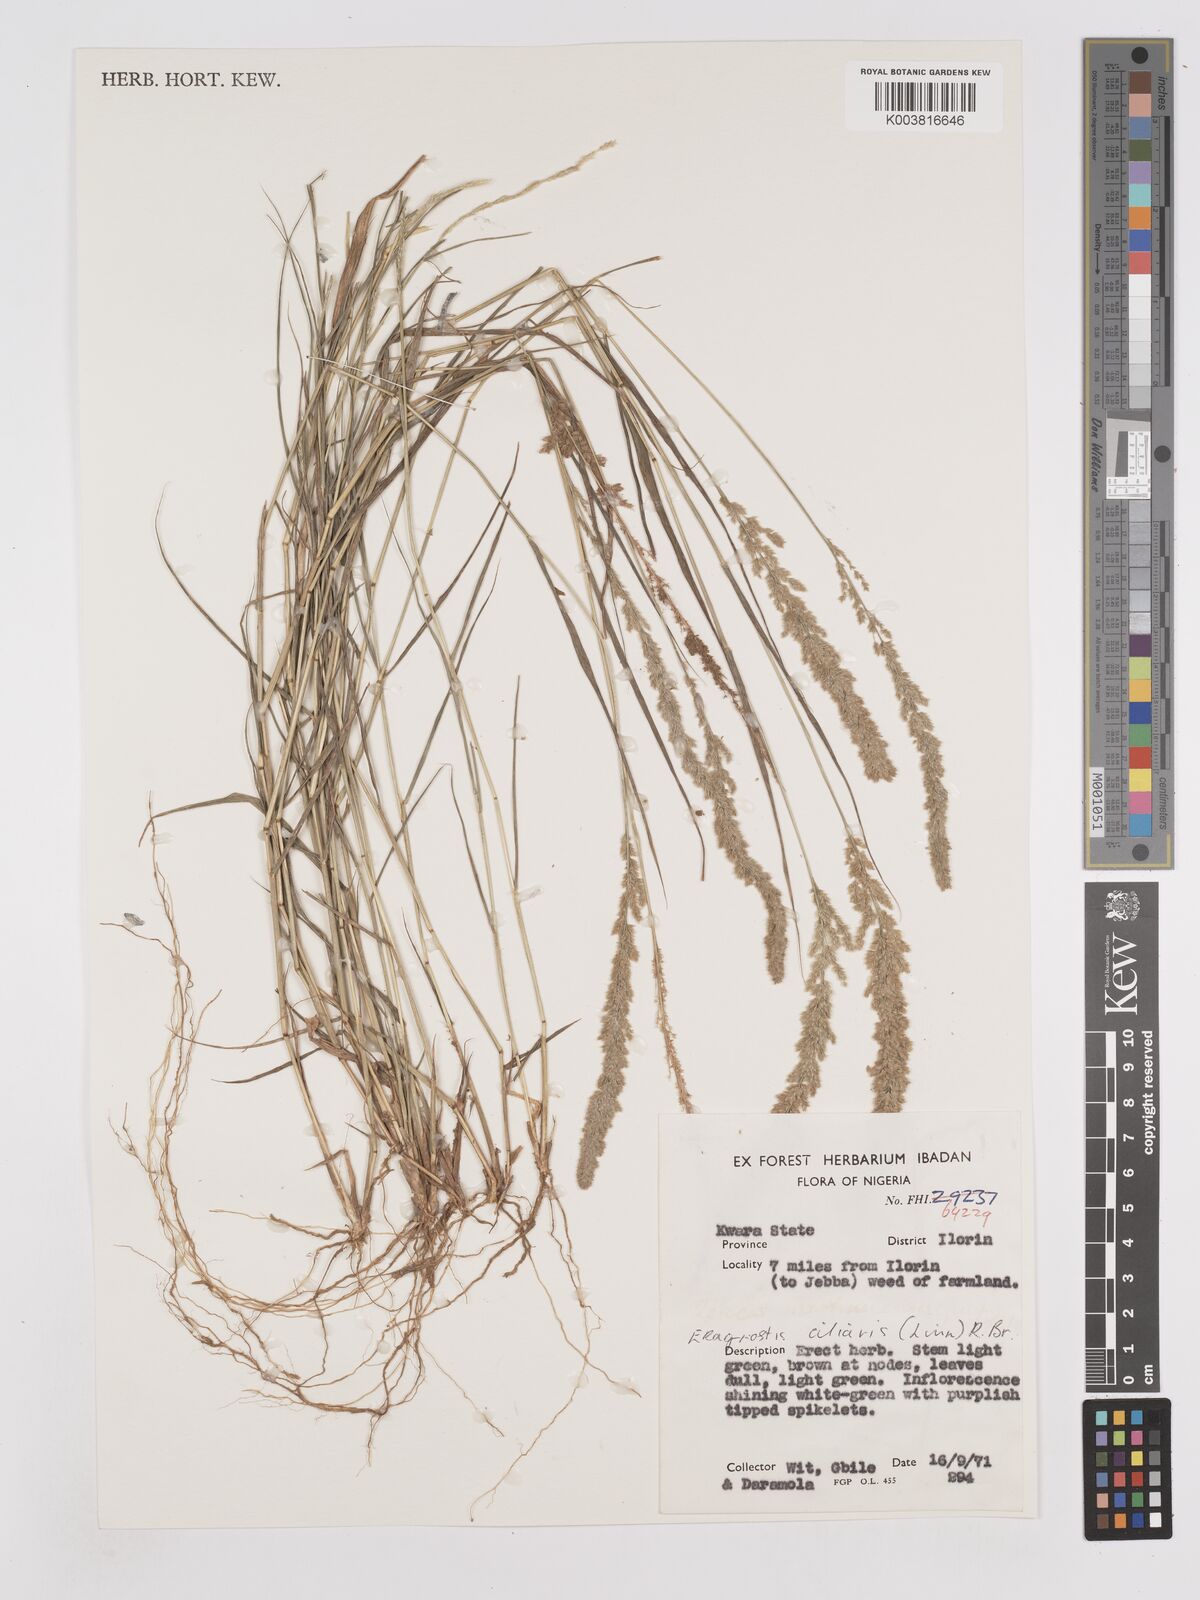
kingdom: Plantae
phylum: Tracheophyta
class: Liliopsida
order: Poales
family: Poaceae
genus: Eragrostis
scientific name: Eragrostis ciliaris
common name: Gophertail lovegrass
